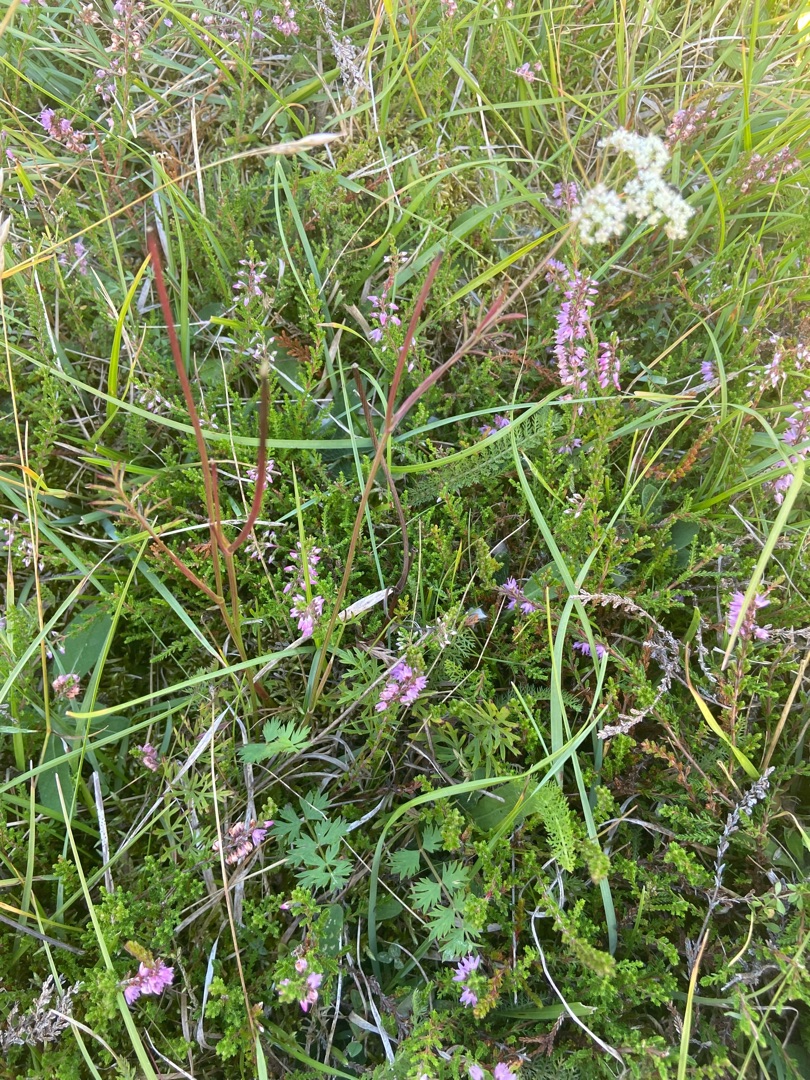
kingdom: Plantae
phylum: Tracheophyta
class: Magnoliopsida
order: Apiales
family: Apiaceae
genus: Pimpinella
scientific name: Pimpinella saxifraga
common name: Almindelig pimpinelle
